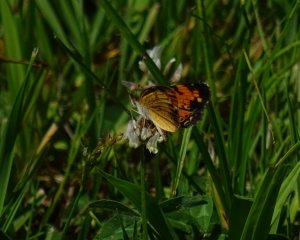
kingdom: Animalia
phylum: Arthropoda
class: Insecta
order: Lepidoptera
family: Nymphalidae
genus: Phyciodes
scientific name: Phyciodes tharos
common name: Northern Crescent
